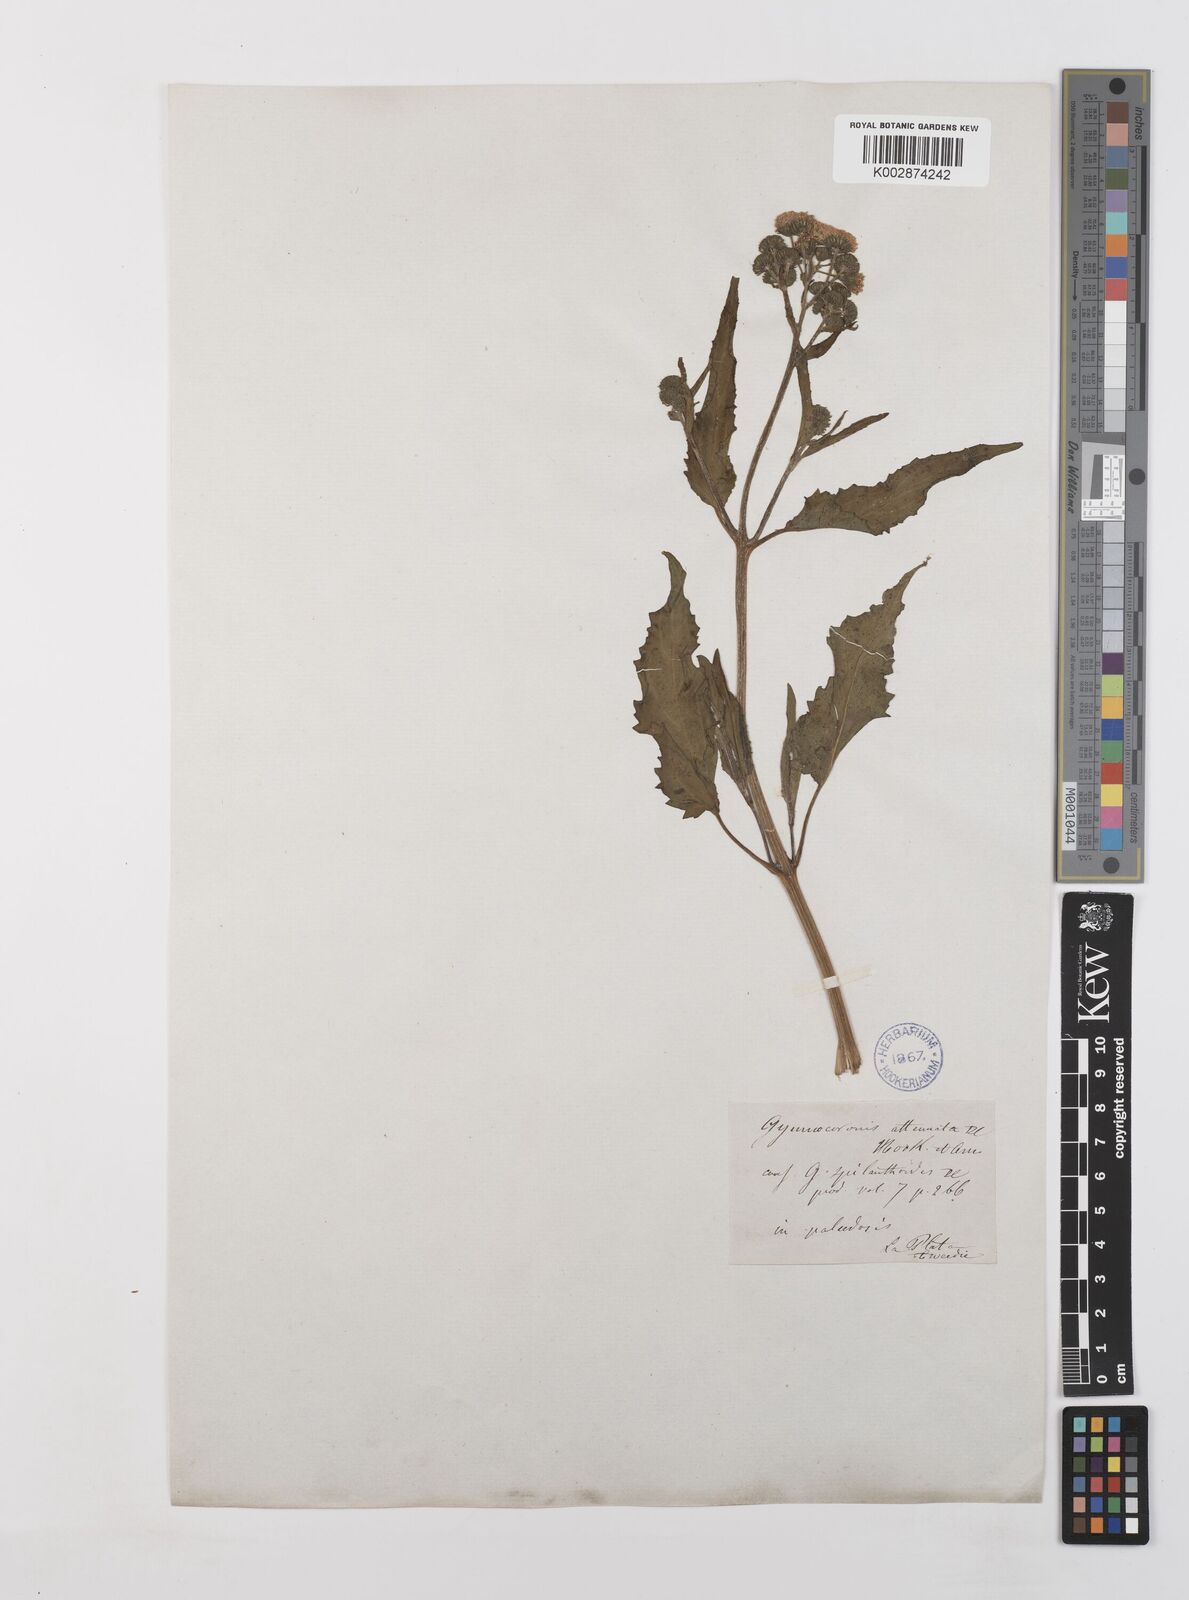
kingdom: Plantae
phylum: Tracheophyta
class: Magnoliopsida
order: Asterales
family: Asteraceae
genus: Gymnocoronis
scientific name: Gymnocoronis spilanthoides
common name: Senegal teaplant
